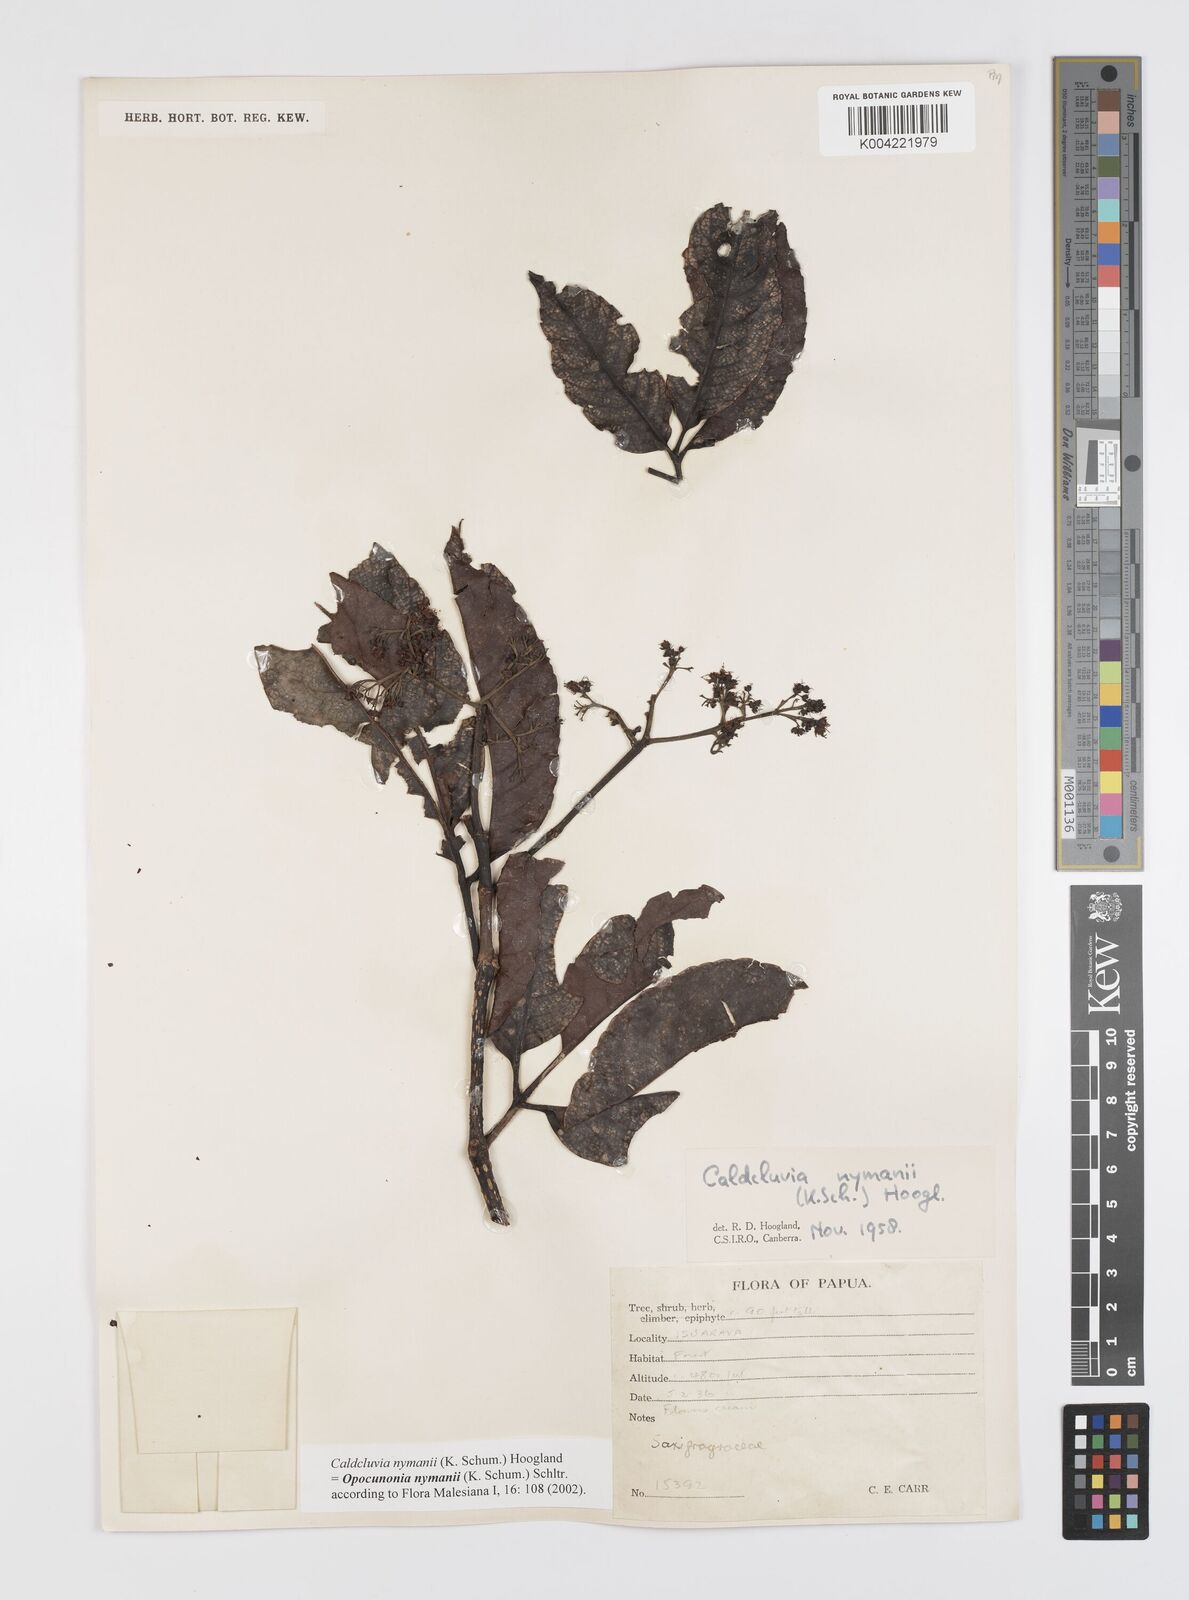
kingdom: Plantae
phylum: Tracheophyta
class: Magnoliopsida
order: Oxalidales
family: Cunoniaceae
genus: Opocunonia
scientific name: Opocunonia nymanii
